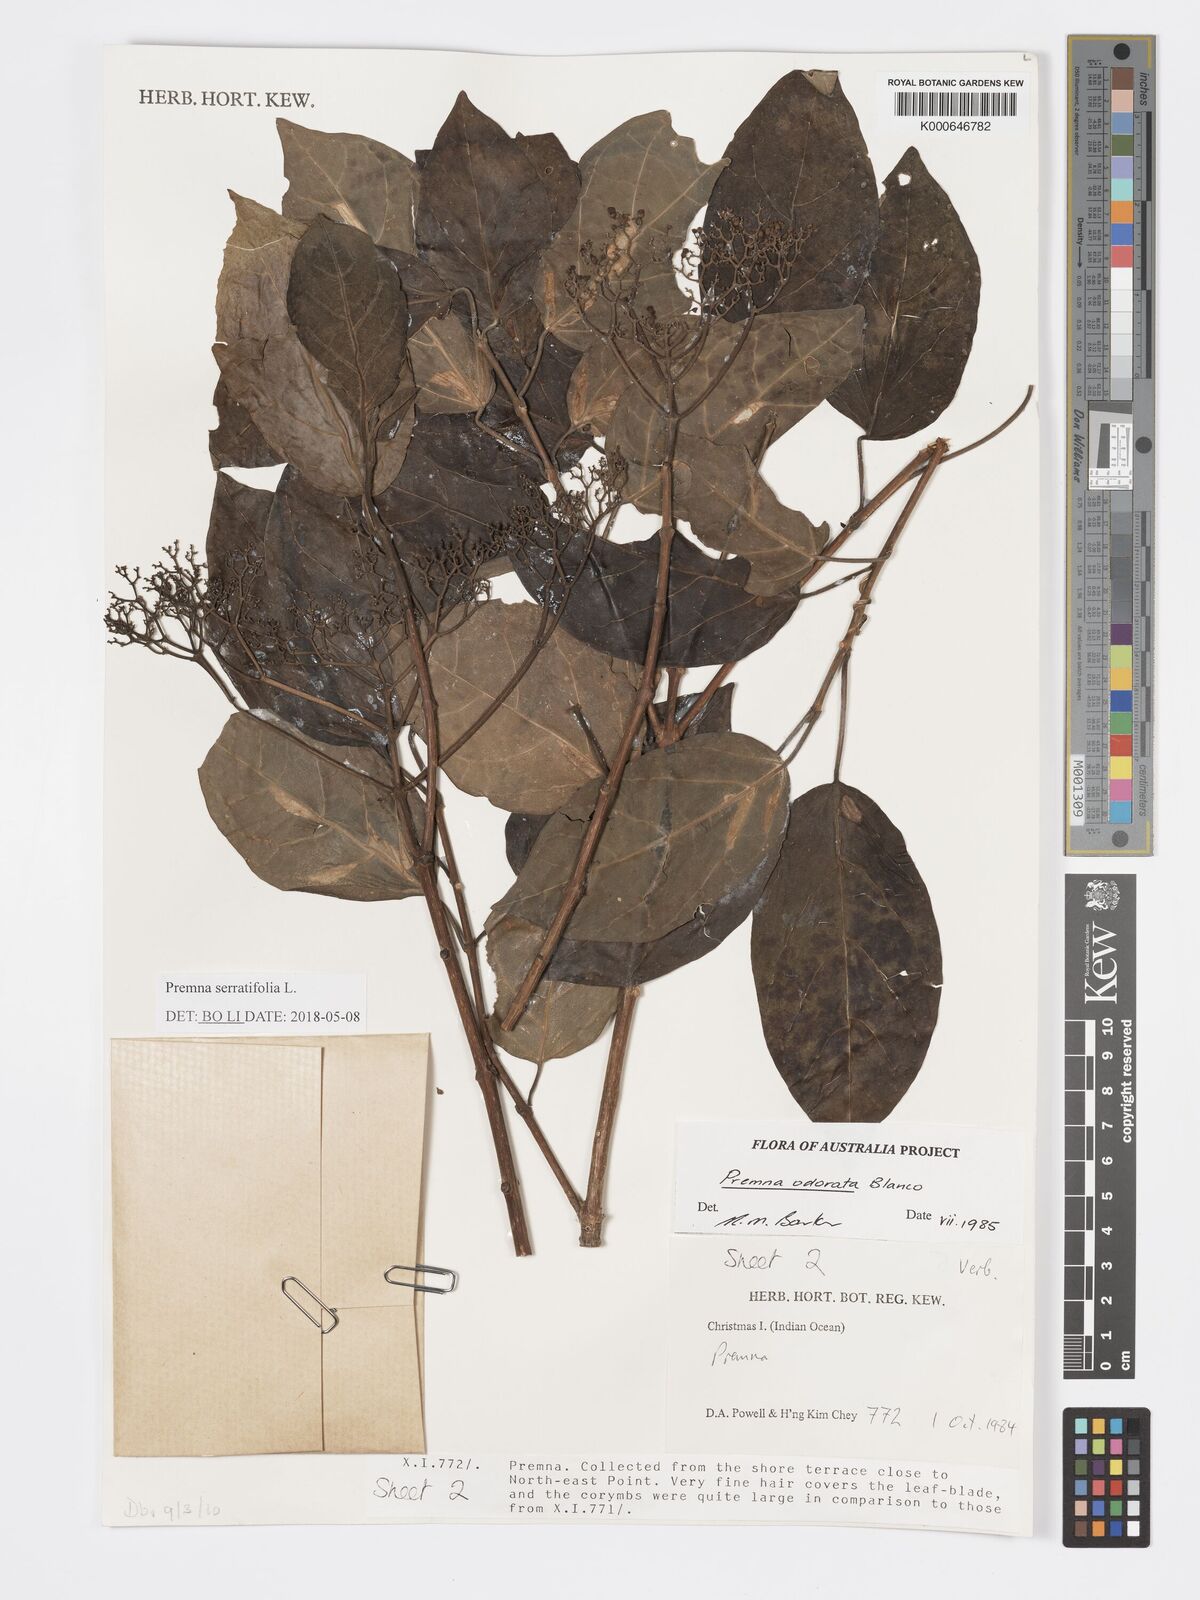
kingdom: Plantae
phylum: Tracheophyta
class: Magnoliopsida
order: Lamiales
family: Lamiaceae
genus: Premna
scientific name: Premna odorata
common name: Fragrant premna
